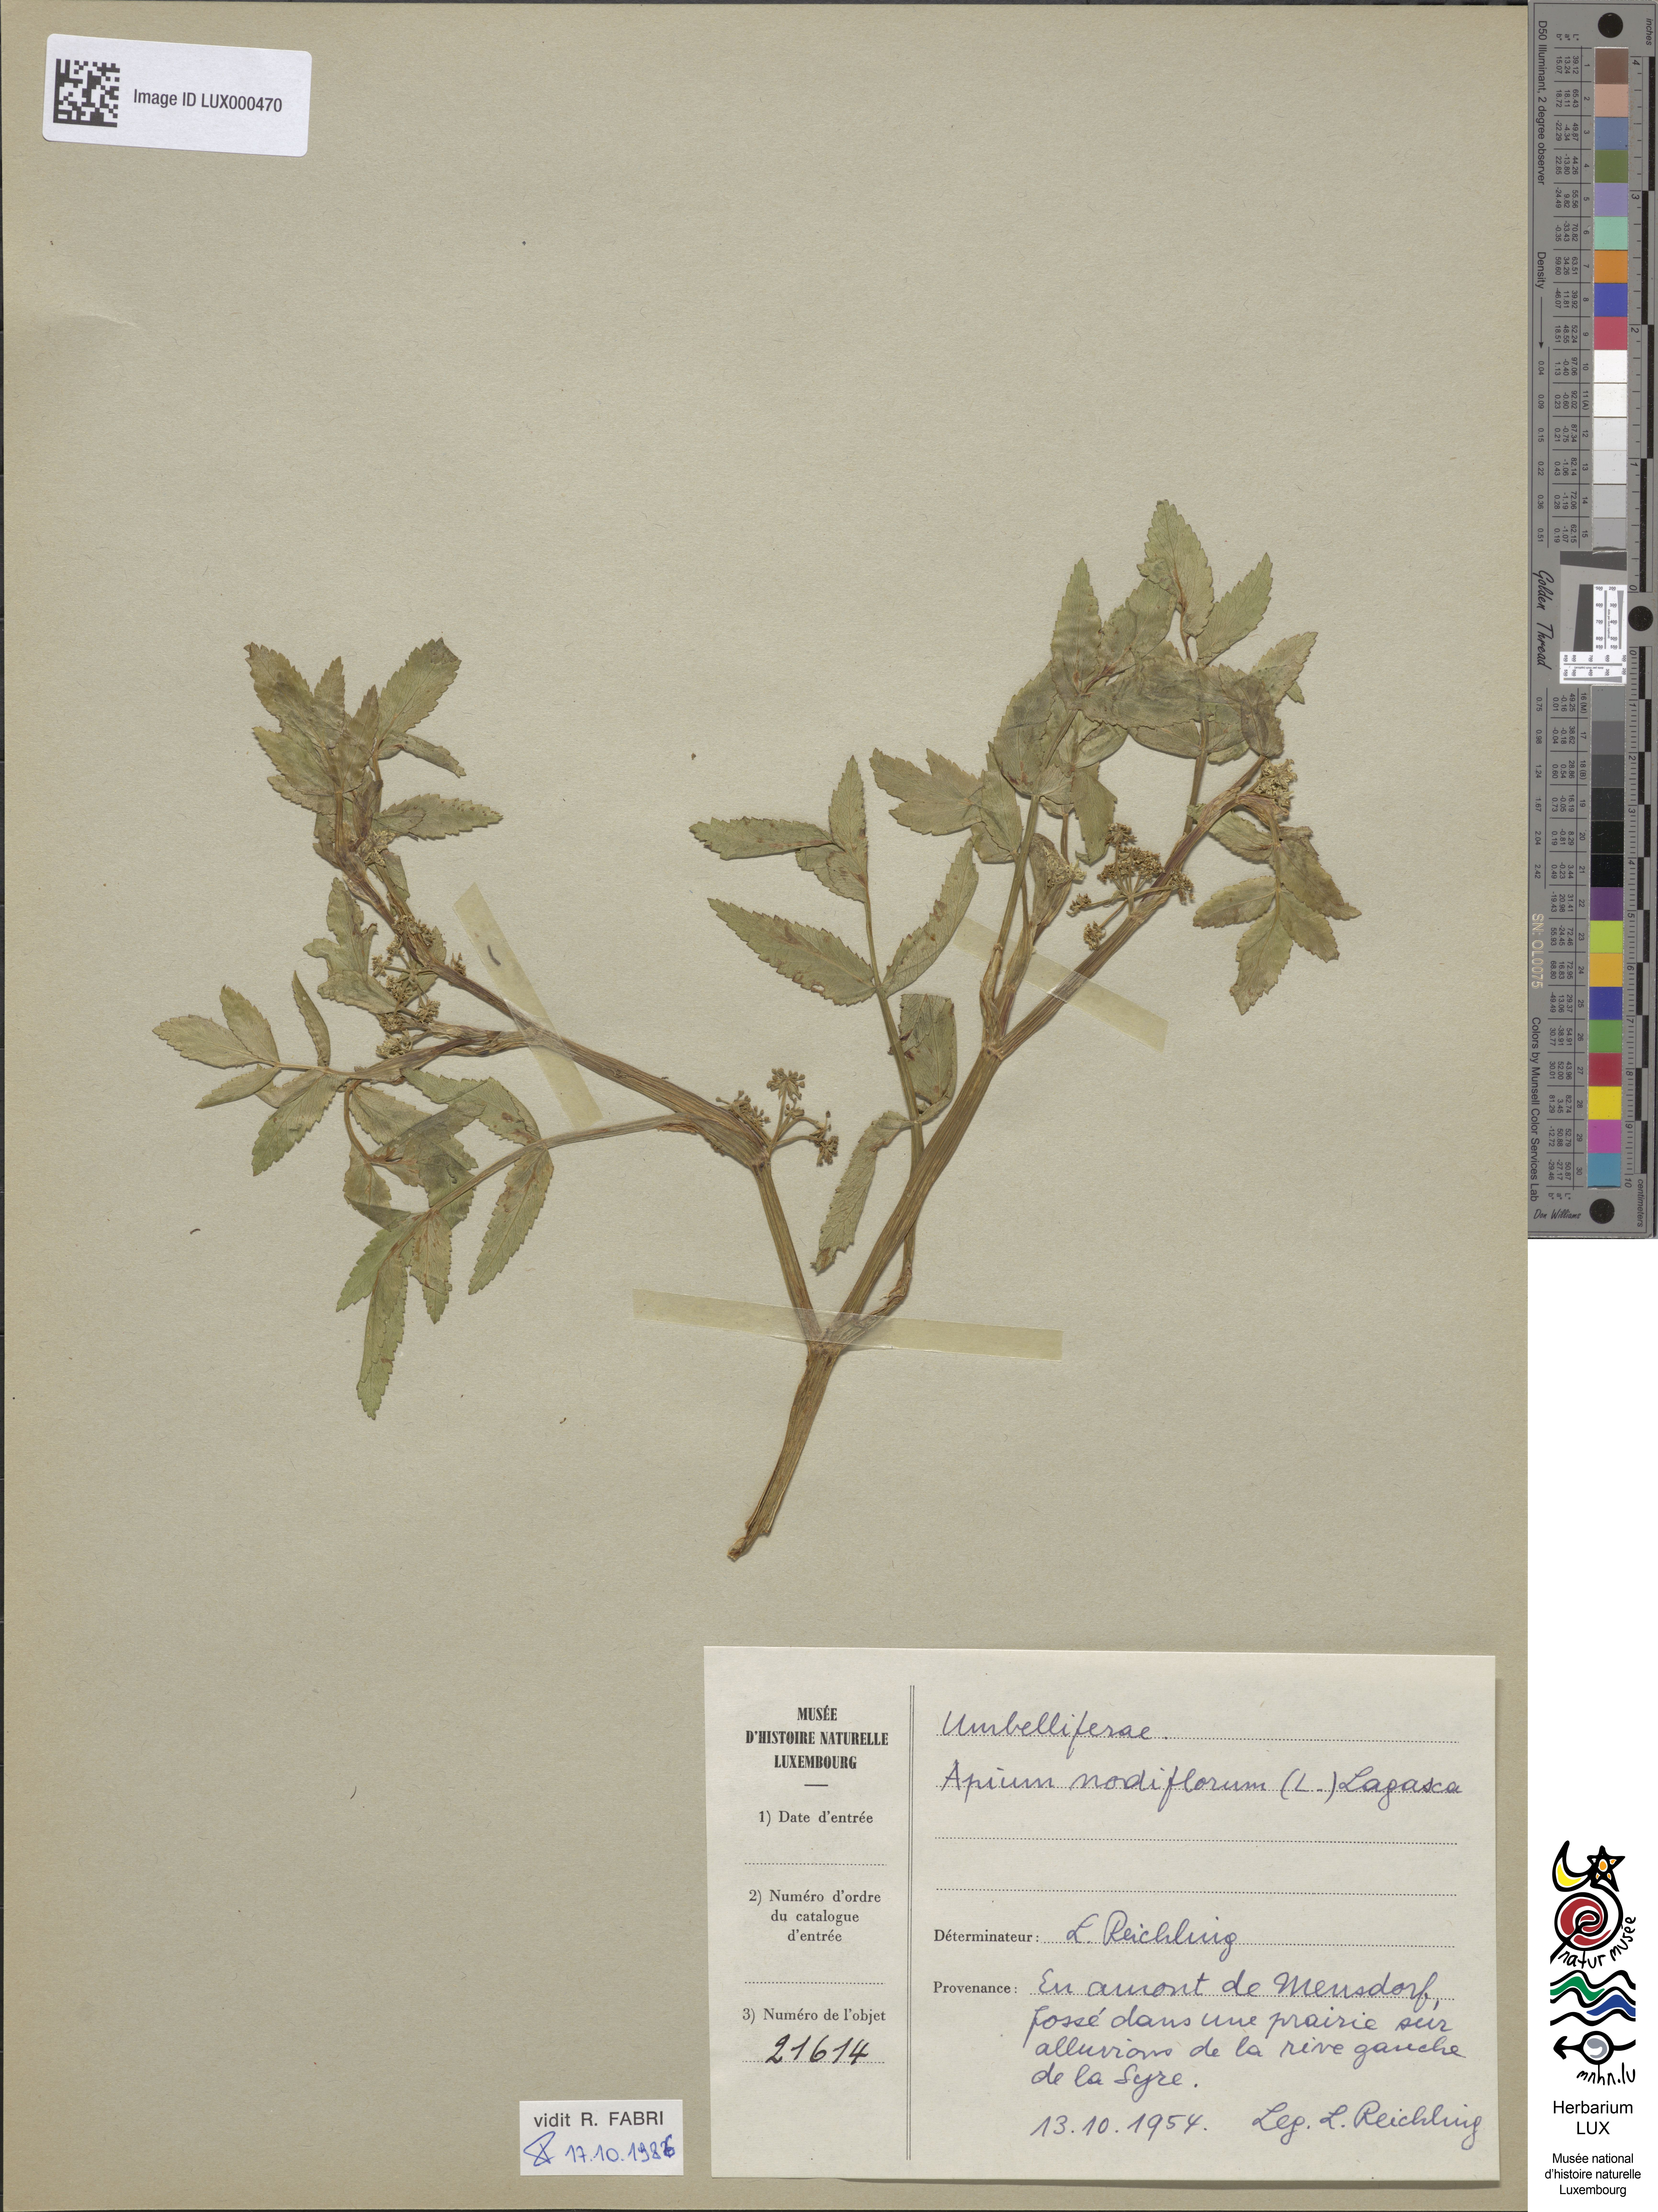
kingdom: Plantae
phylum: Tracheophyta
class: Magnoliopsida
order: Apiales
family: Apiaceae
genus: Helosciadium
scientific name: Helosciadium nodiflorum
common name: Fool's-watercress
